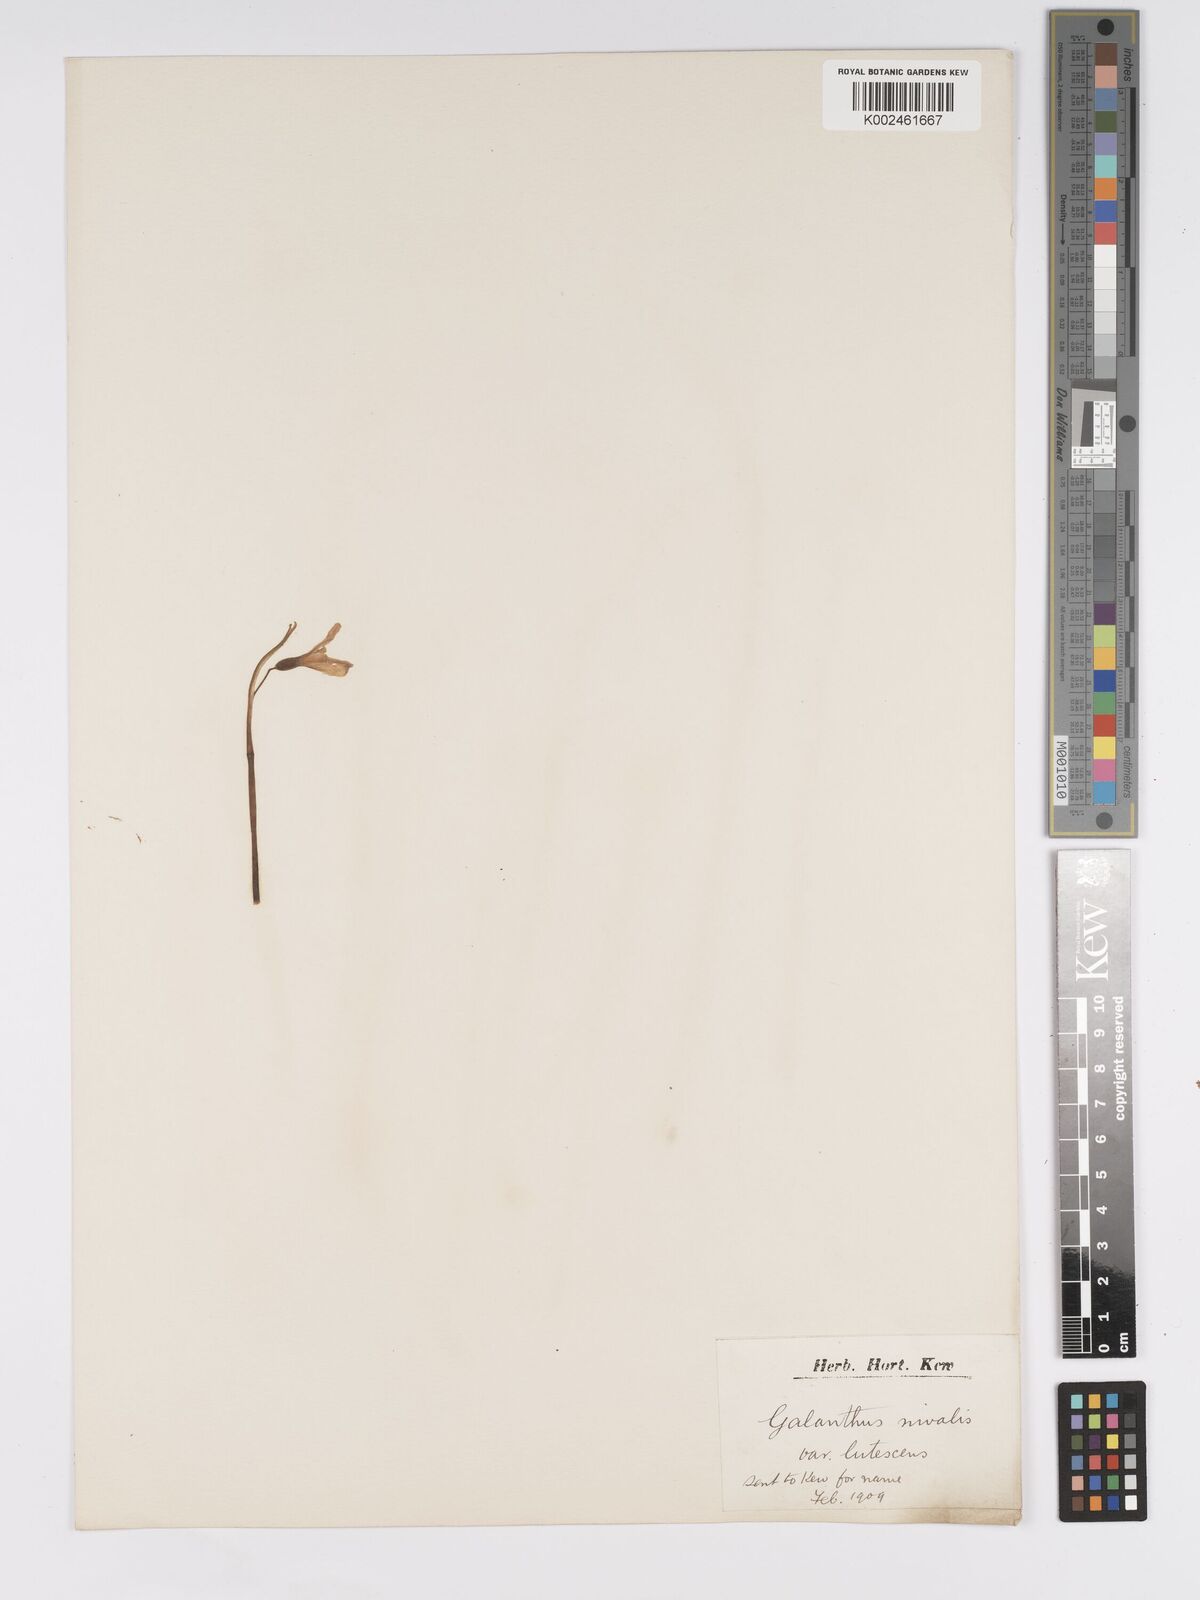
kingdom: Plantae
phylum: Tracheophyta
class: Liliopsida
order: Asparagales
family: Amaryllidaceae
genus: Galanthus
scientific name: Galanthus
